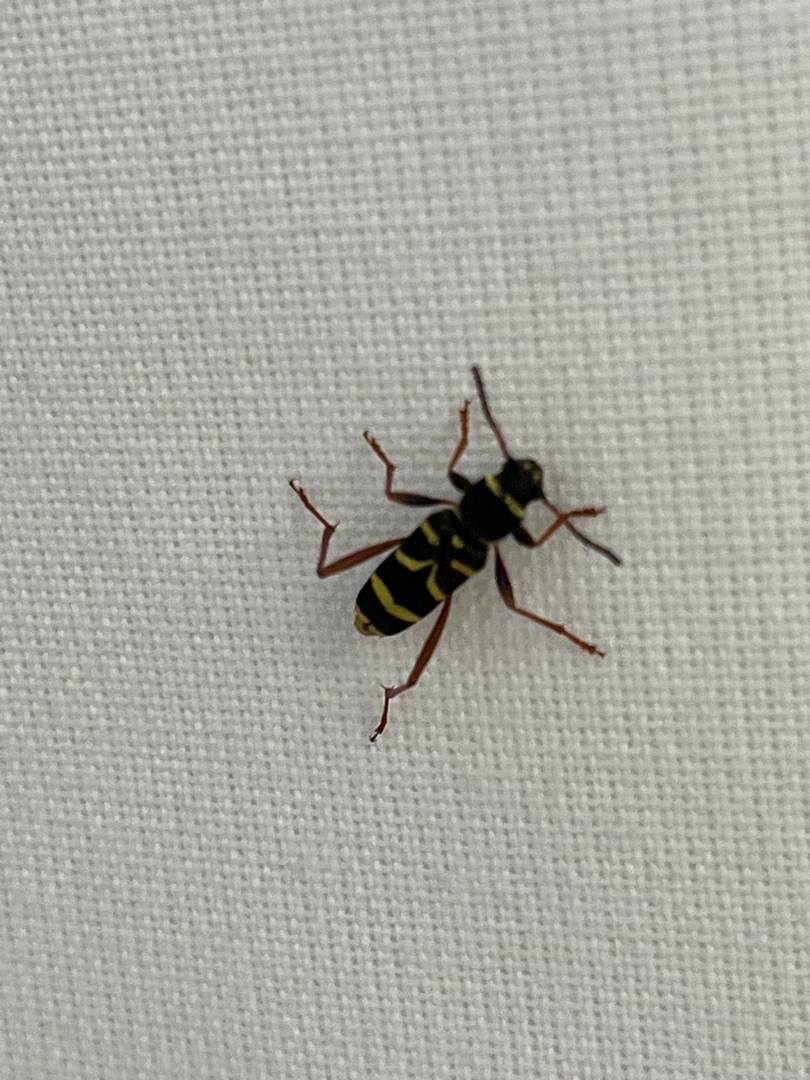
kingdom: Animalia
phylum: Arthropoda
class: Insecta
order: Coleoptera
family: Cerambycidae
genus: Clytus
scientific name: Clytus arietis
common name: Lille hvepsebuk
